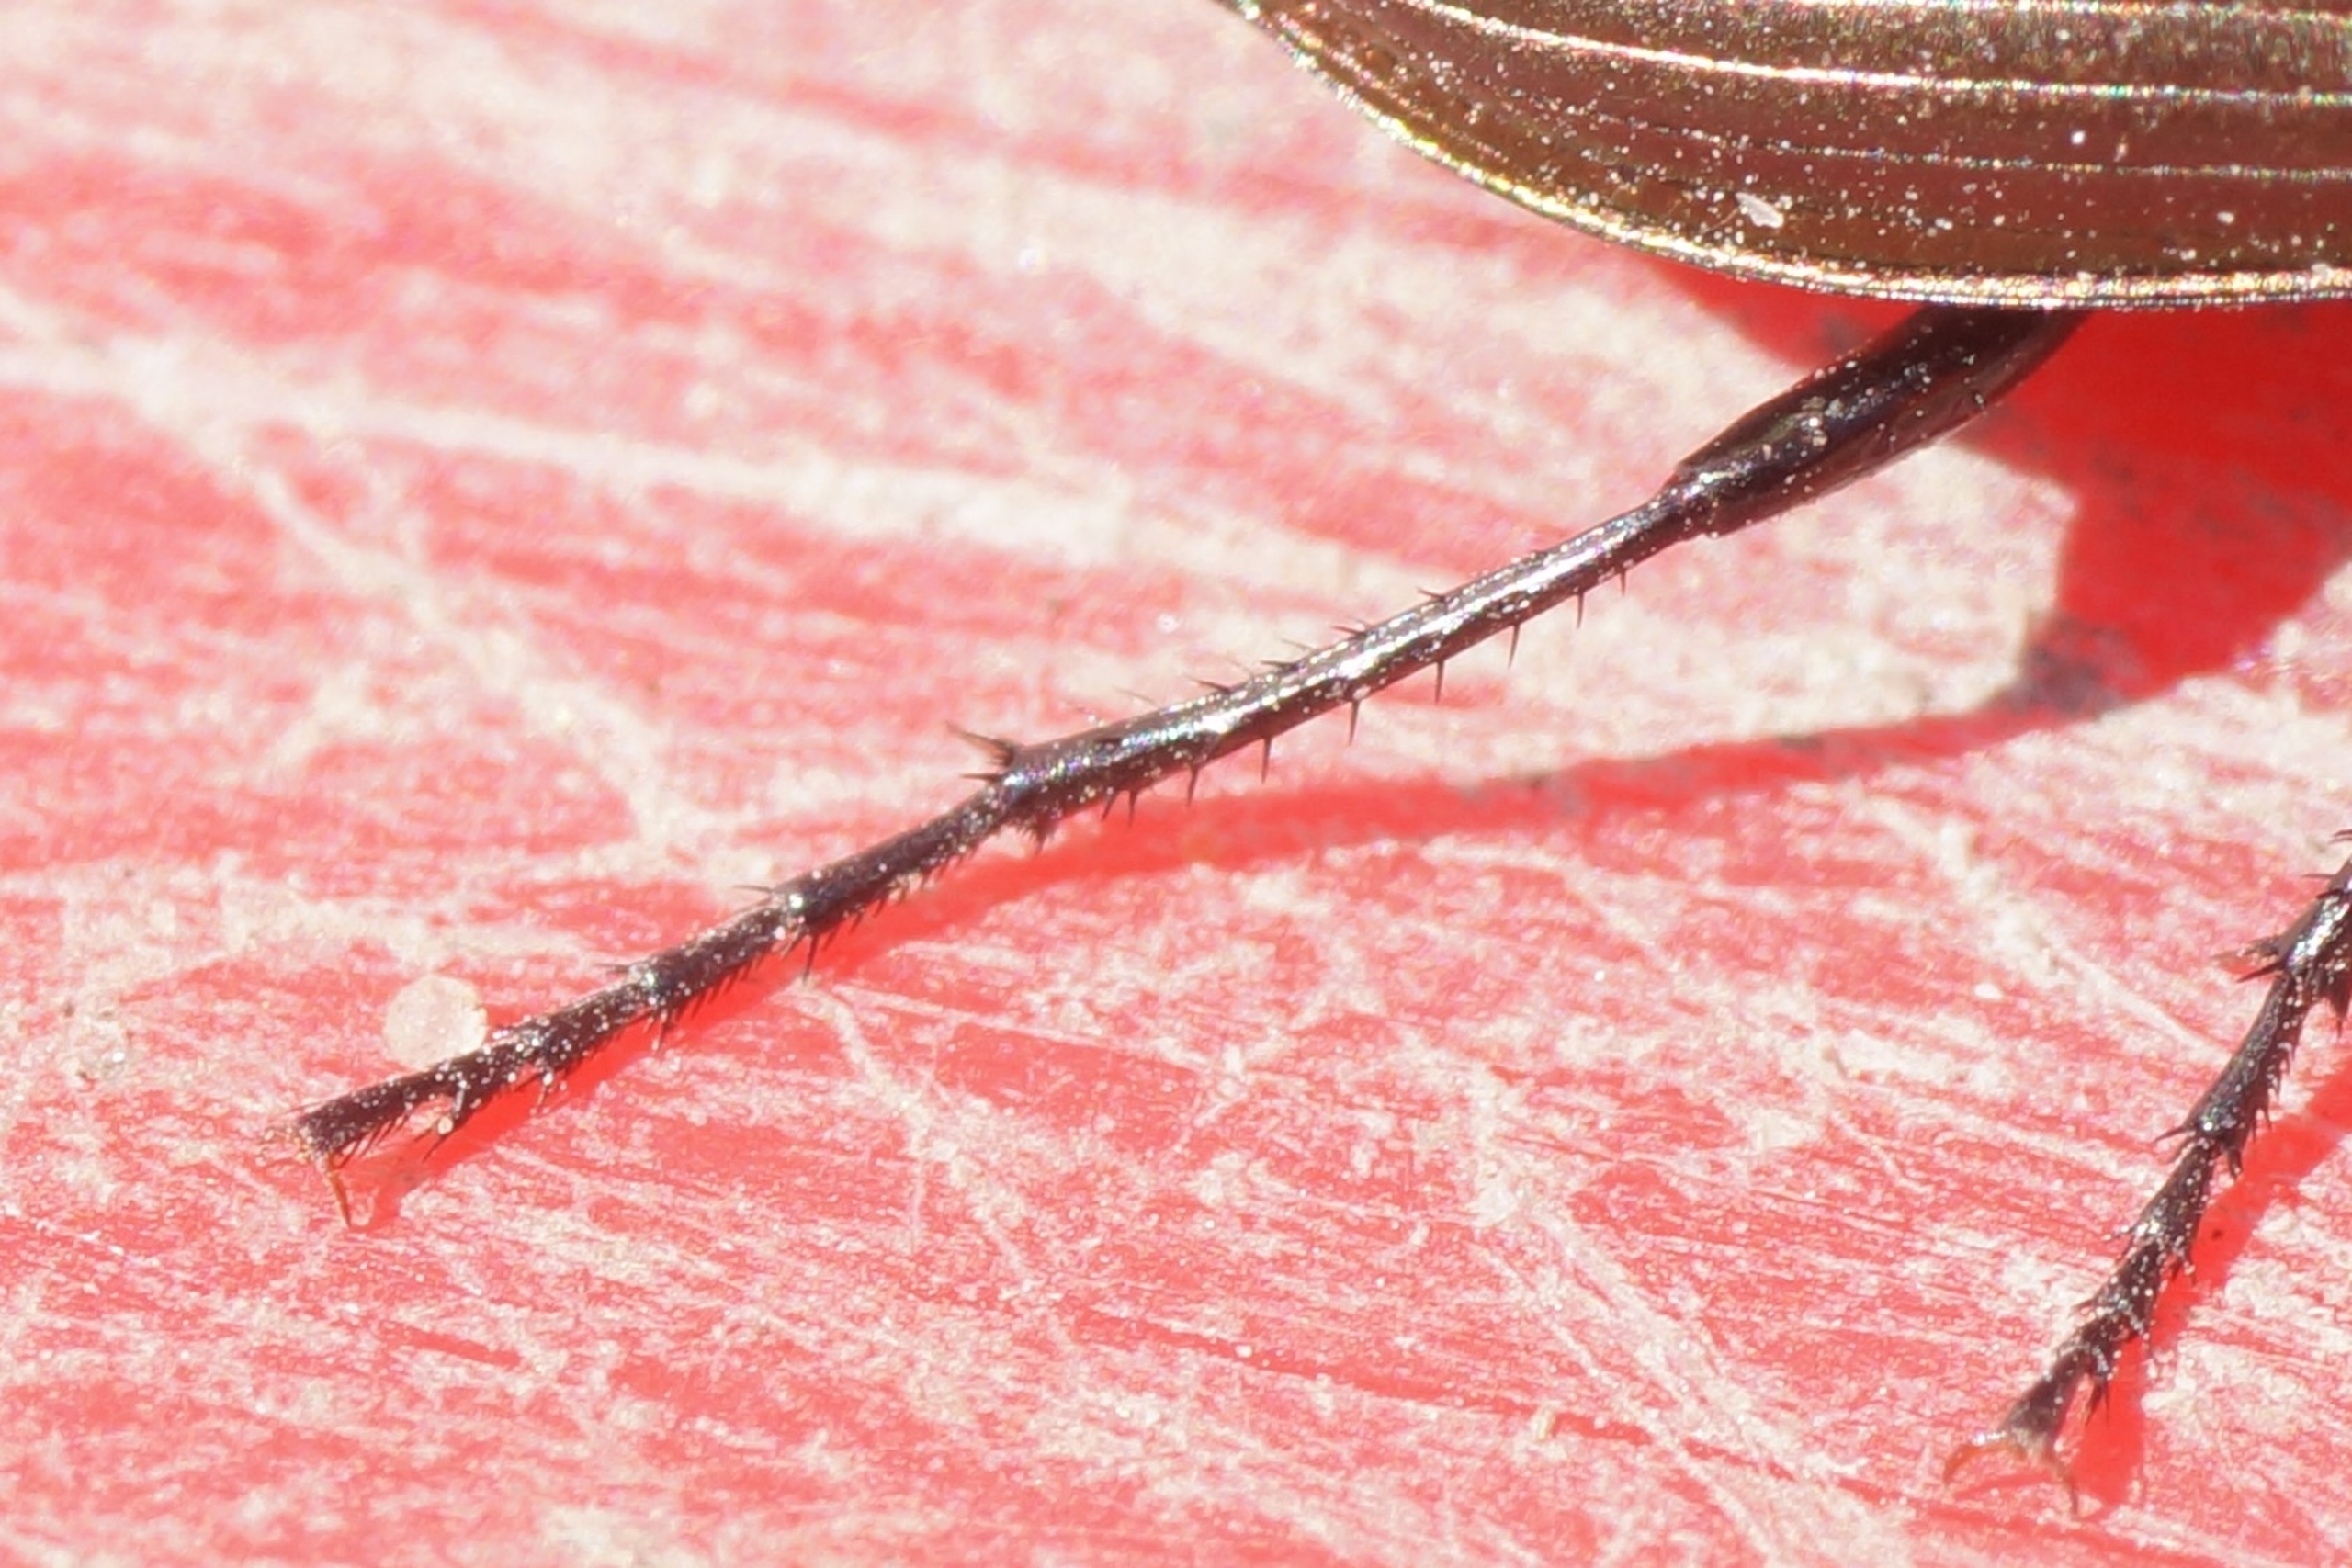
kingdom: Animalia
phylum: Arthropoda
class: Insecta
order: Coleoptera
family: Carabidae
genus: Poecilus
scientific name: Poecilus cupreus
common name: Bred metaljordløber
